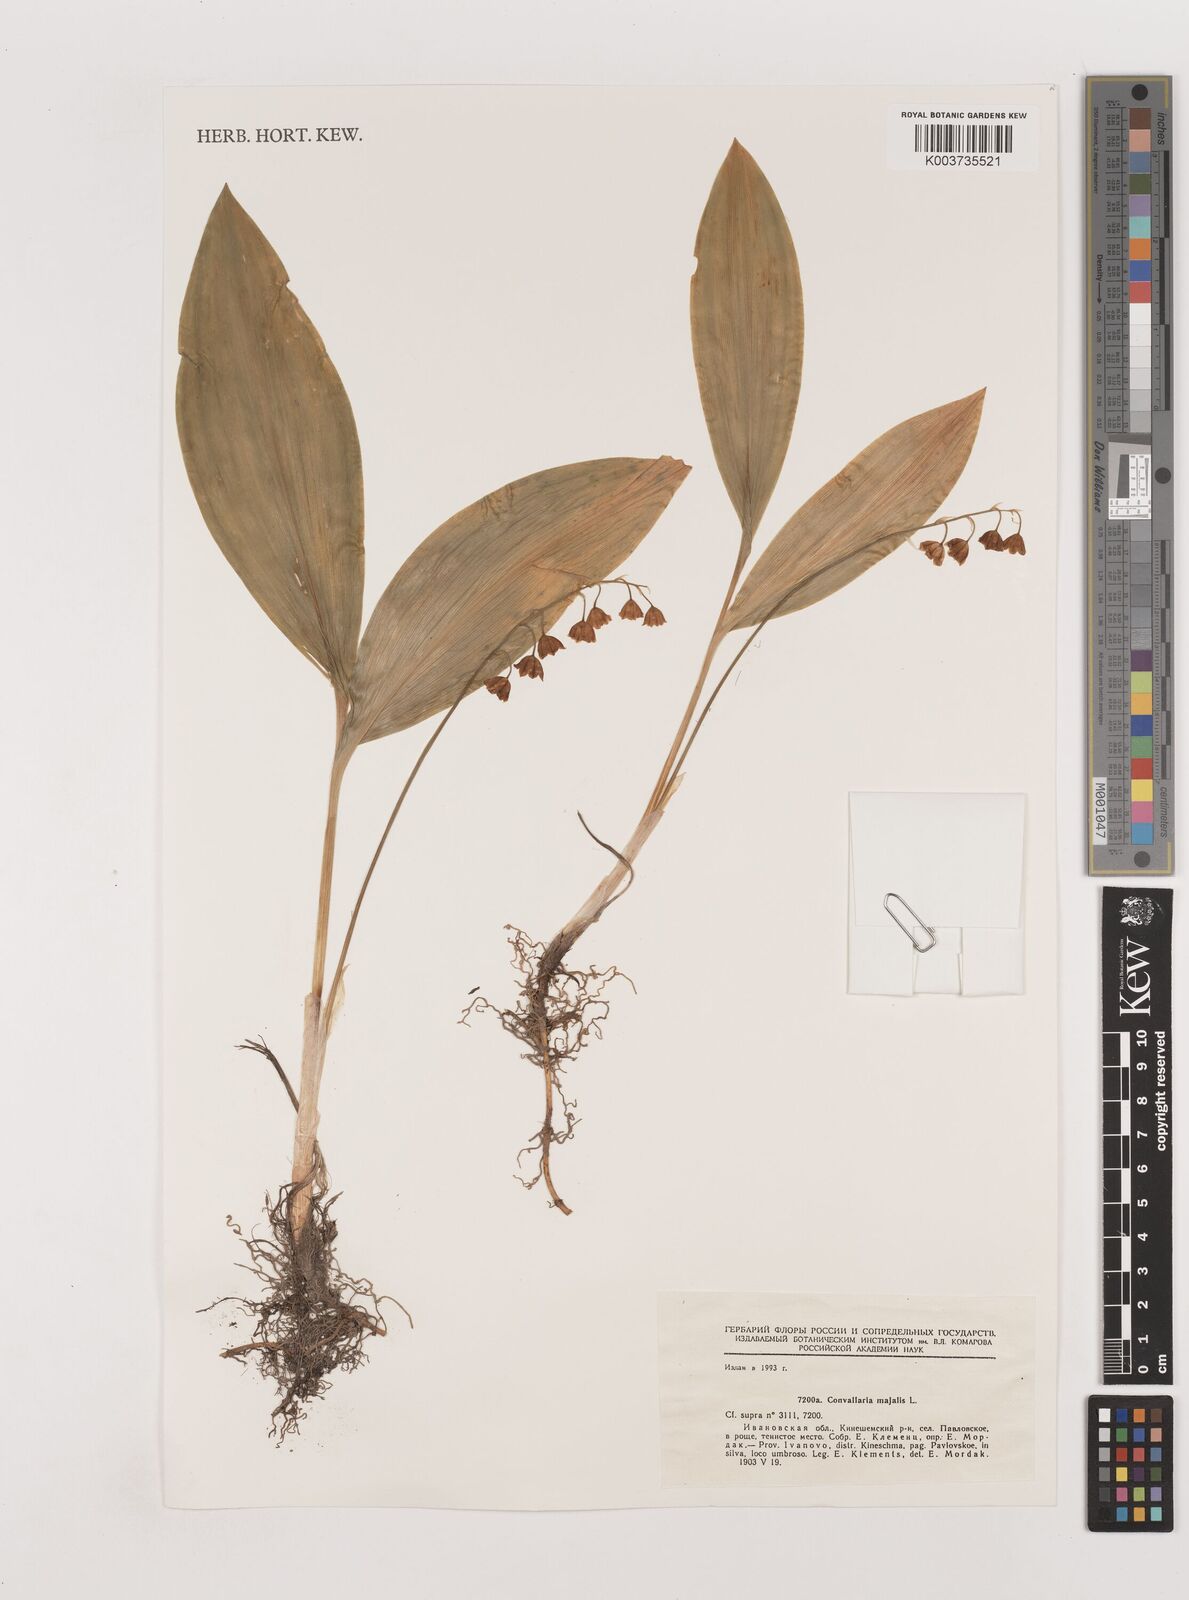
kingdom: Plantae
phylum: Tracheophyta
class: Liliopsida
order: Asparagales
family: Asparagaceae
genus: Convallaria
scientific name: Convallaria majalis
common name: Lily-of-the-valley
